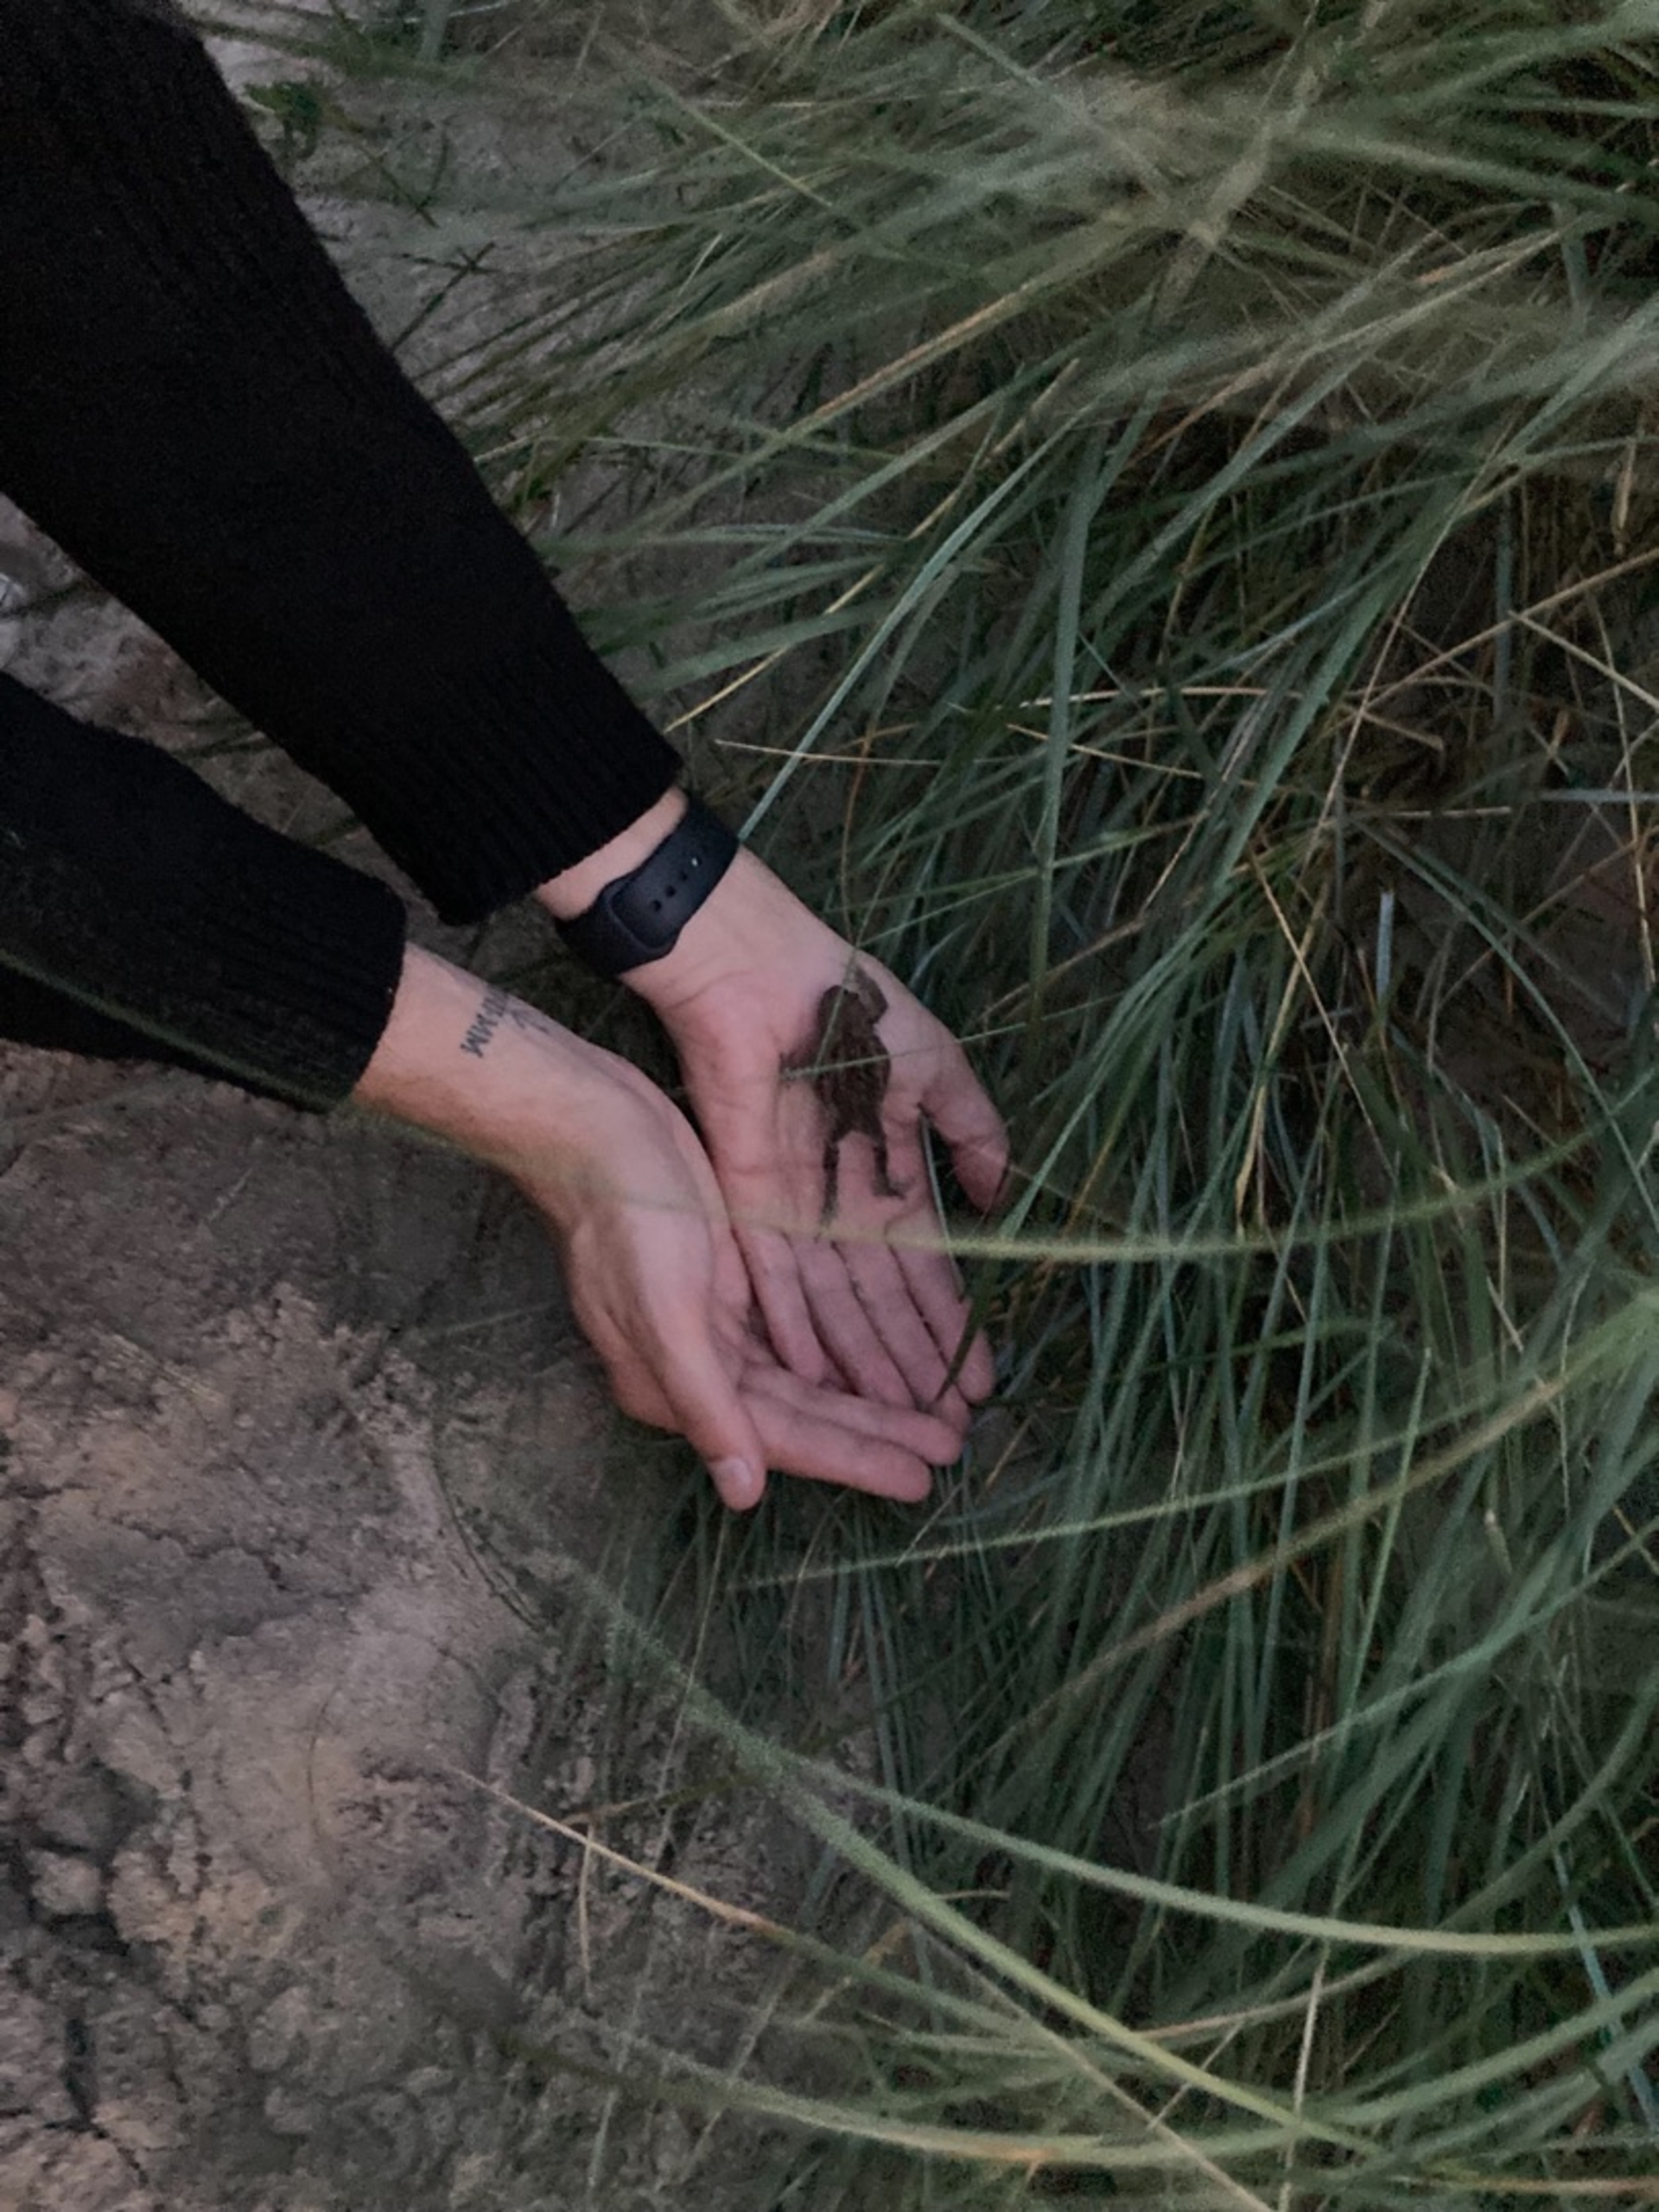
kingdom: Animalia
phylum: Chordata
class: Amphibia
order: Anura
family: Bufonidae
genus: Bufo
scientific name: Bufo bufo
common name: Skrubtudse
